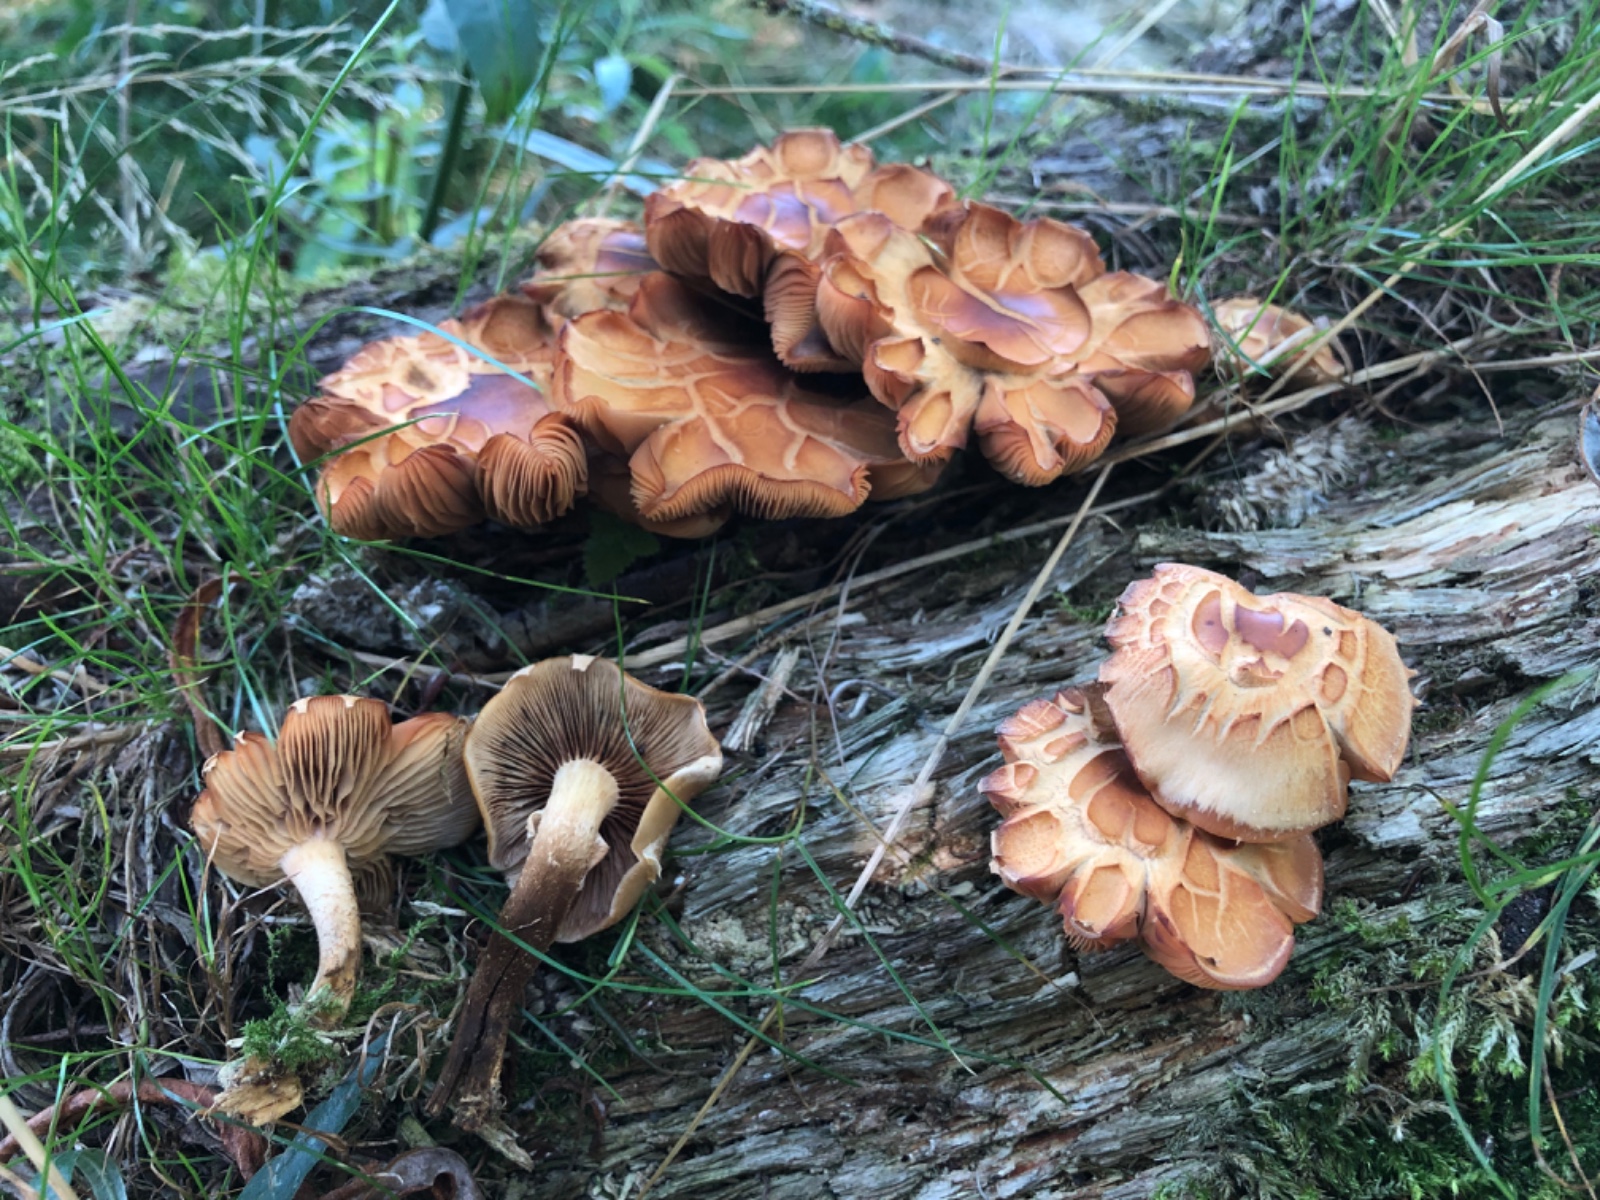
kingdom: Fungi
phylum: Basidiomycota
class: Agaricomycetes
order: Agaricales
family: Strophariaceae
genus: Kuehneromyces
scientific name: Kuehneromyces mutabilis
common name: foranderlig skælhat
